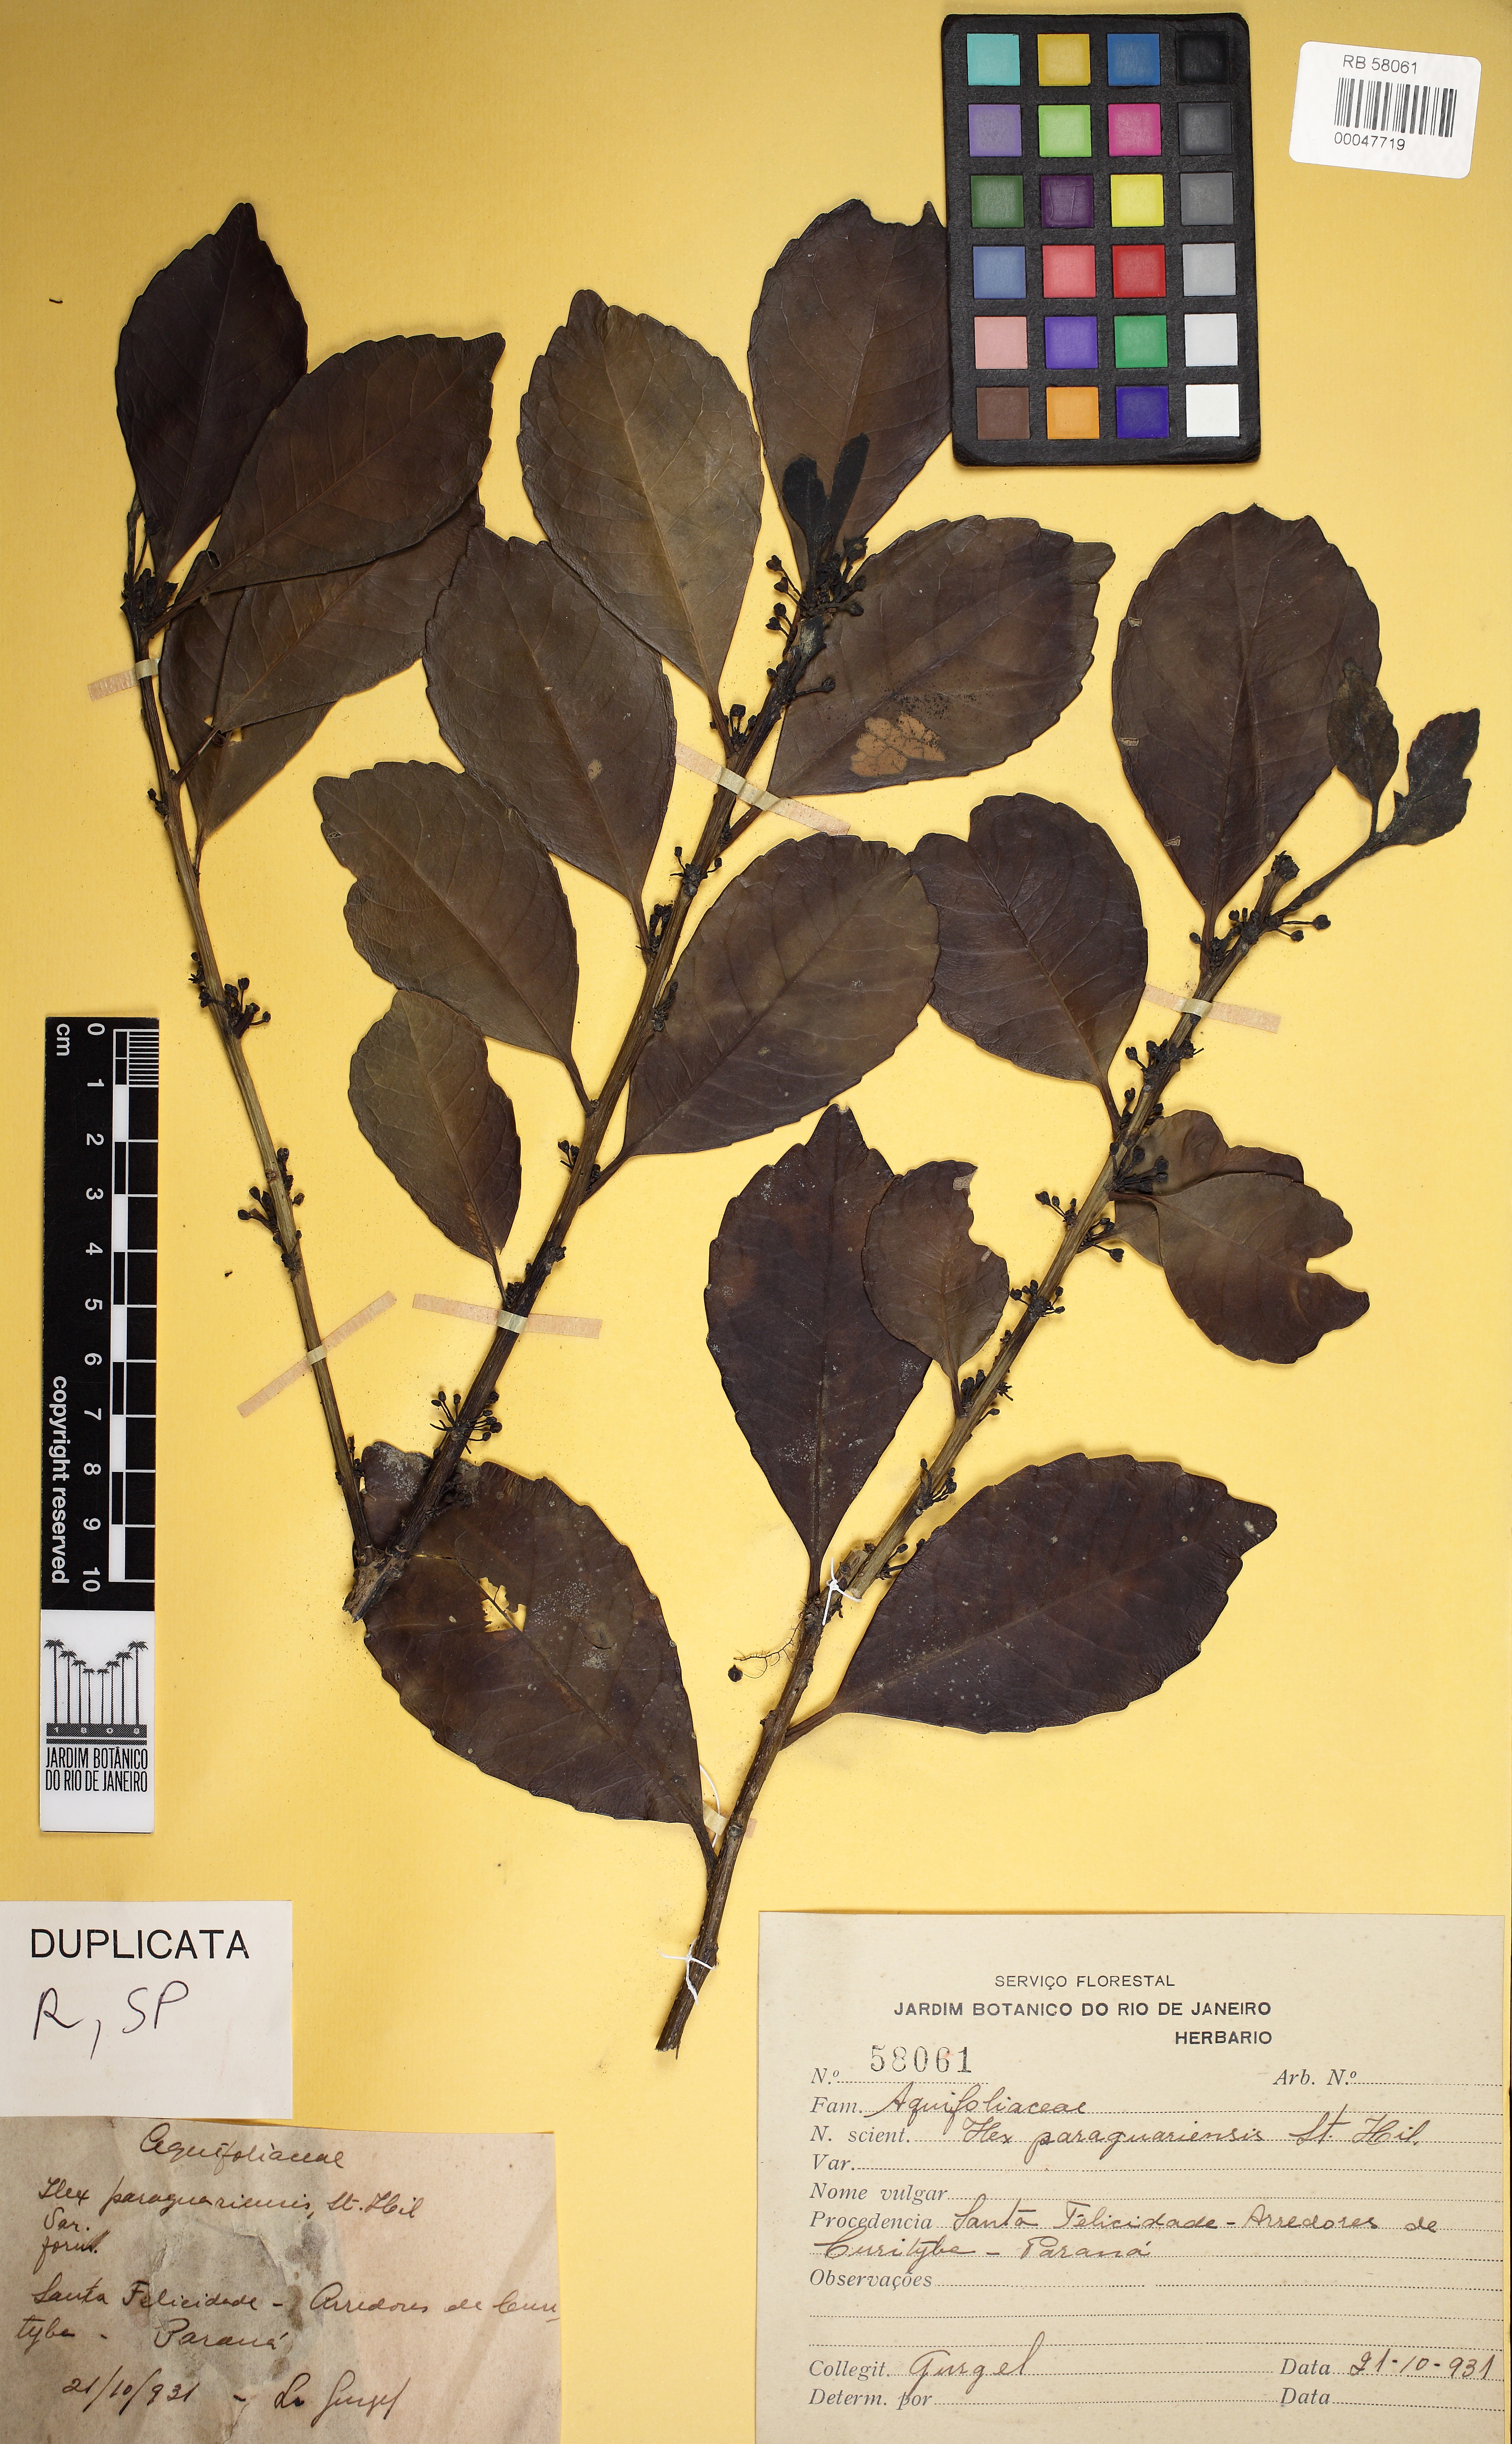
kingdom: Plantae
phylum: Tracheophyta
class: Magnoliopsida
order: Aquifoliales
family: Aquifoliaceae
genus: Ilex
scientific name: Ilex paraguariensis
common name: Paraguay tea
